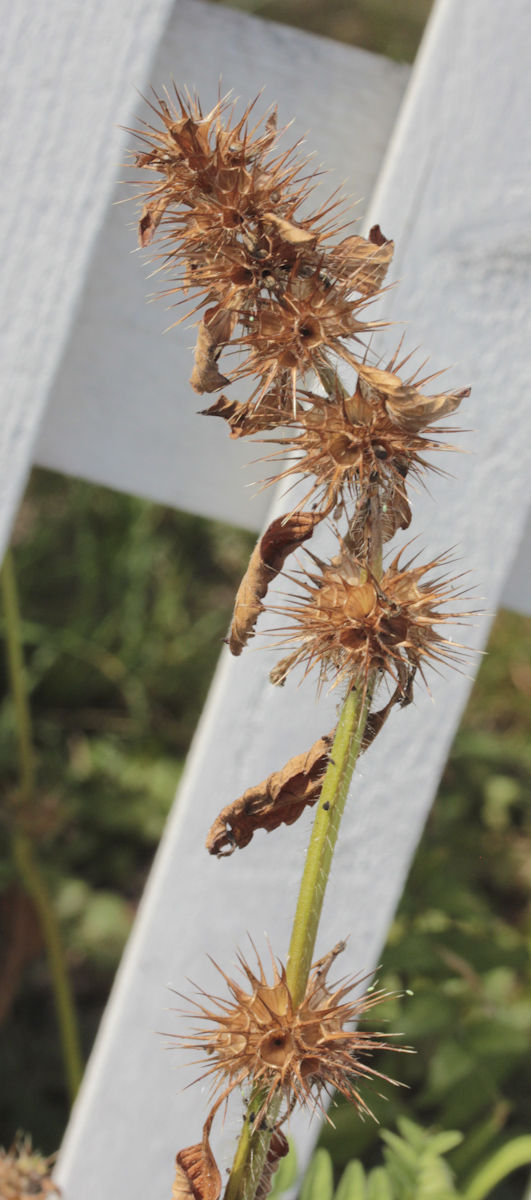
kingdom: Plantae
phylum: Tracheophyta
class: Magnoliopsida
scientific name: Magnoliopsida
